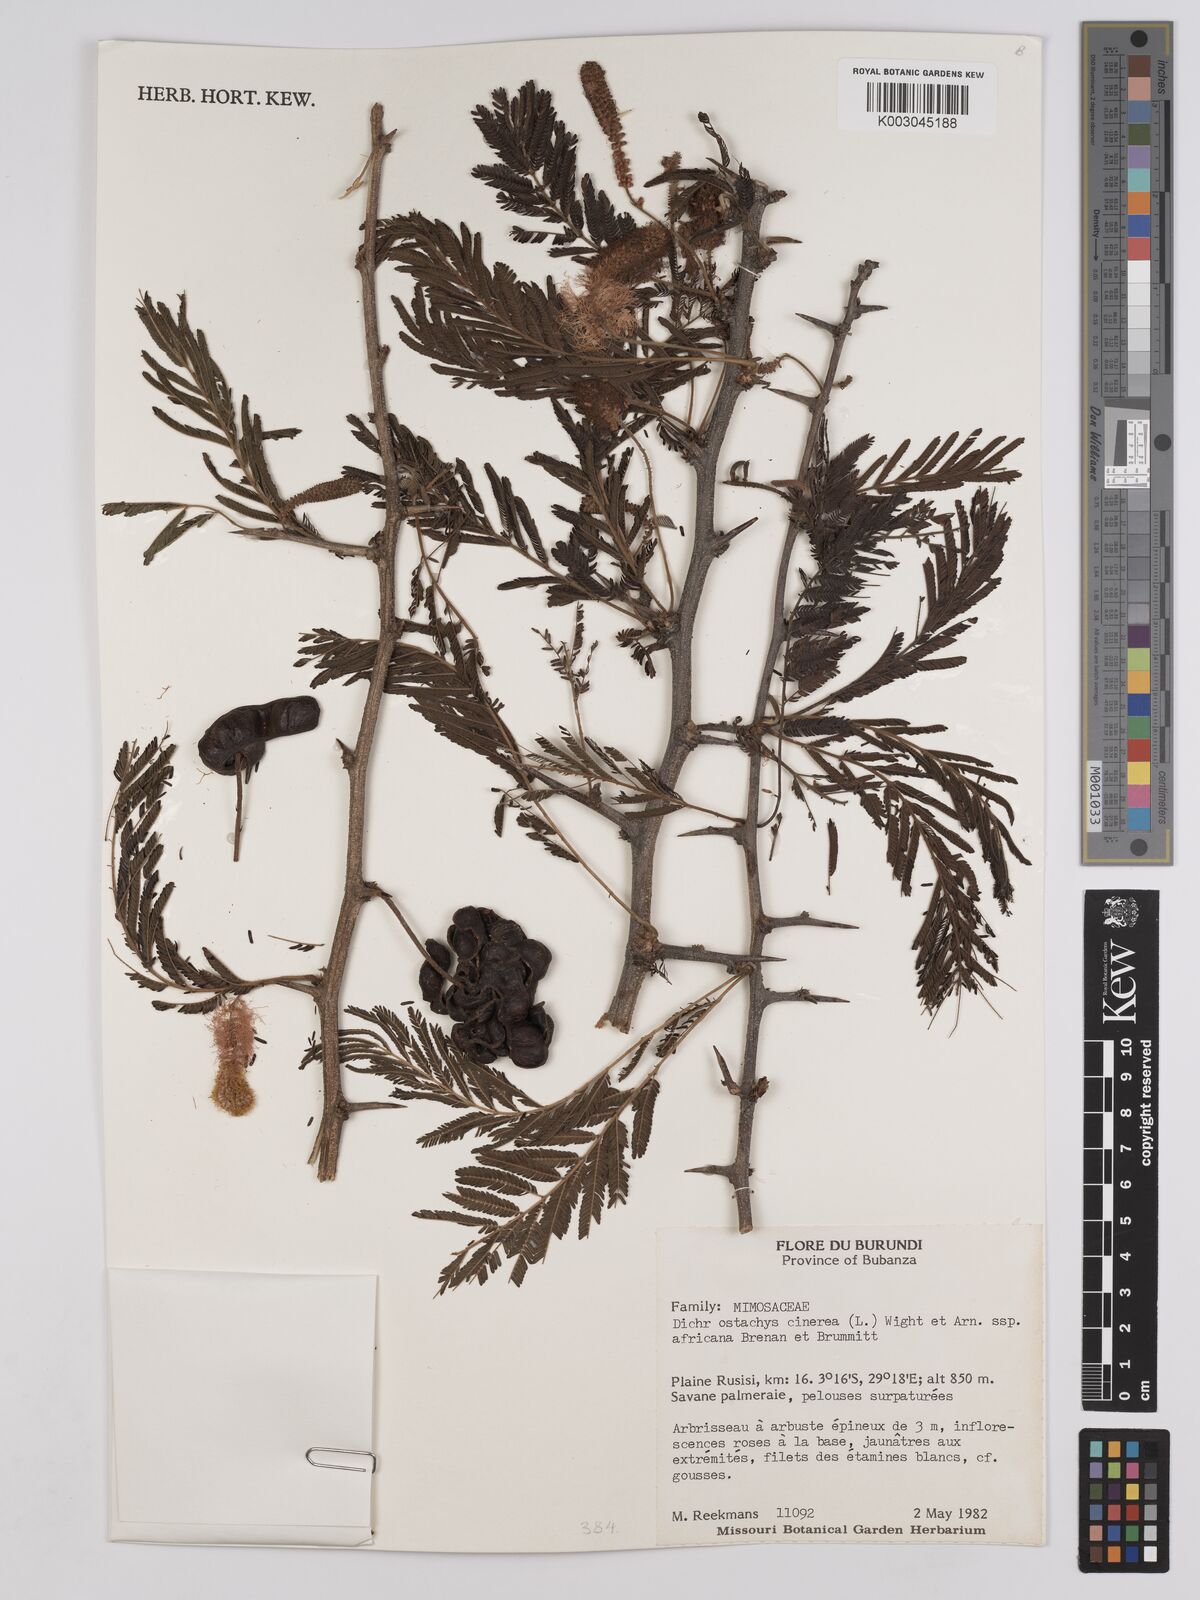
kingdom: Plantae
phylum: Tracheophyta
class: Magnoliopsida
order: Fabales
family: Fabaceae
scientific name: Fabaceae
